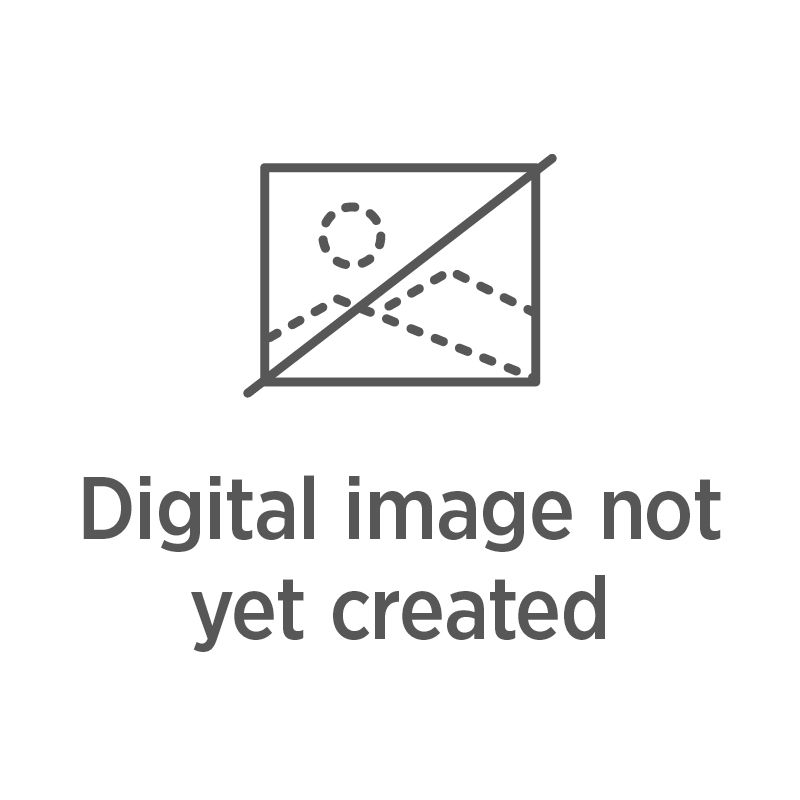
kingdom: Plantae
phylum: Tracheophyta
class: Polypodiopsida
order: Gleicheniales
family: Gleicheniaceae
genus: Gleichenia
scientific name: Gleichenia dicarpa
